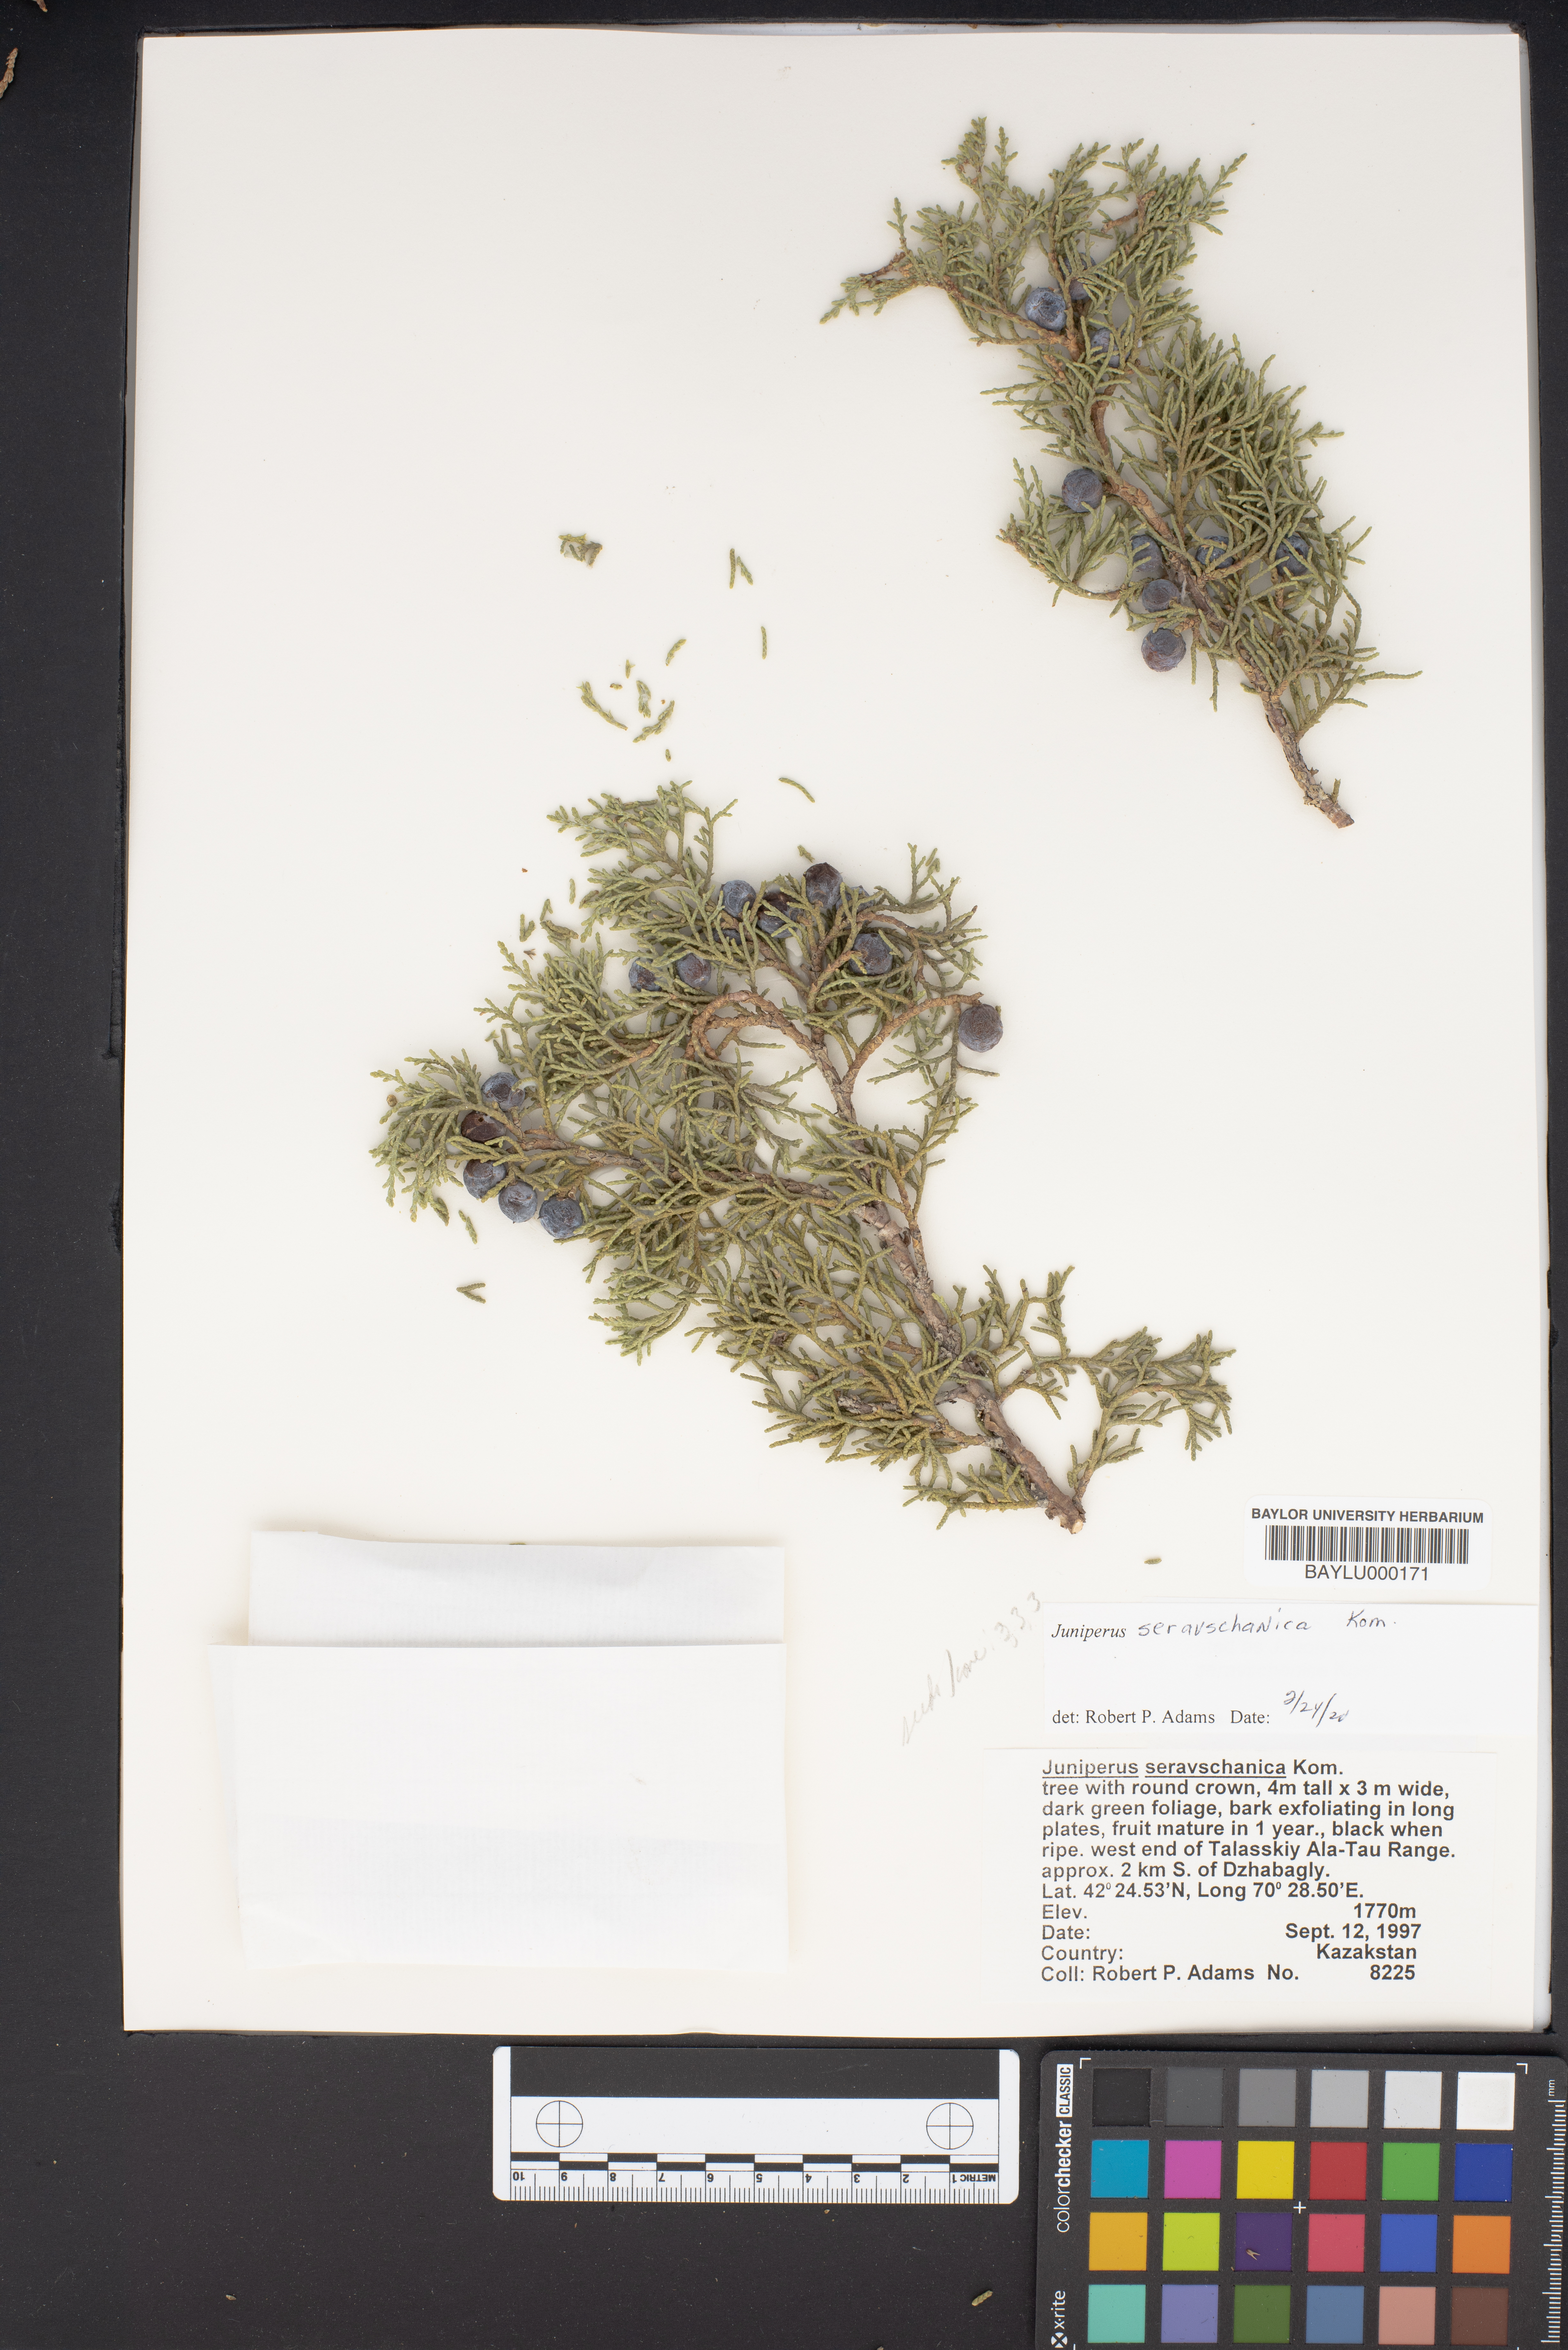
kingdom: Plantae
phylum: Tracheophyta
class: Pinopsida
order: Pinales
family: Cupressaceae
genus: Juniperus
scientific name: Juniperus excelsa
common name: Crimean juniper
